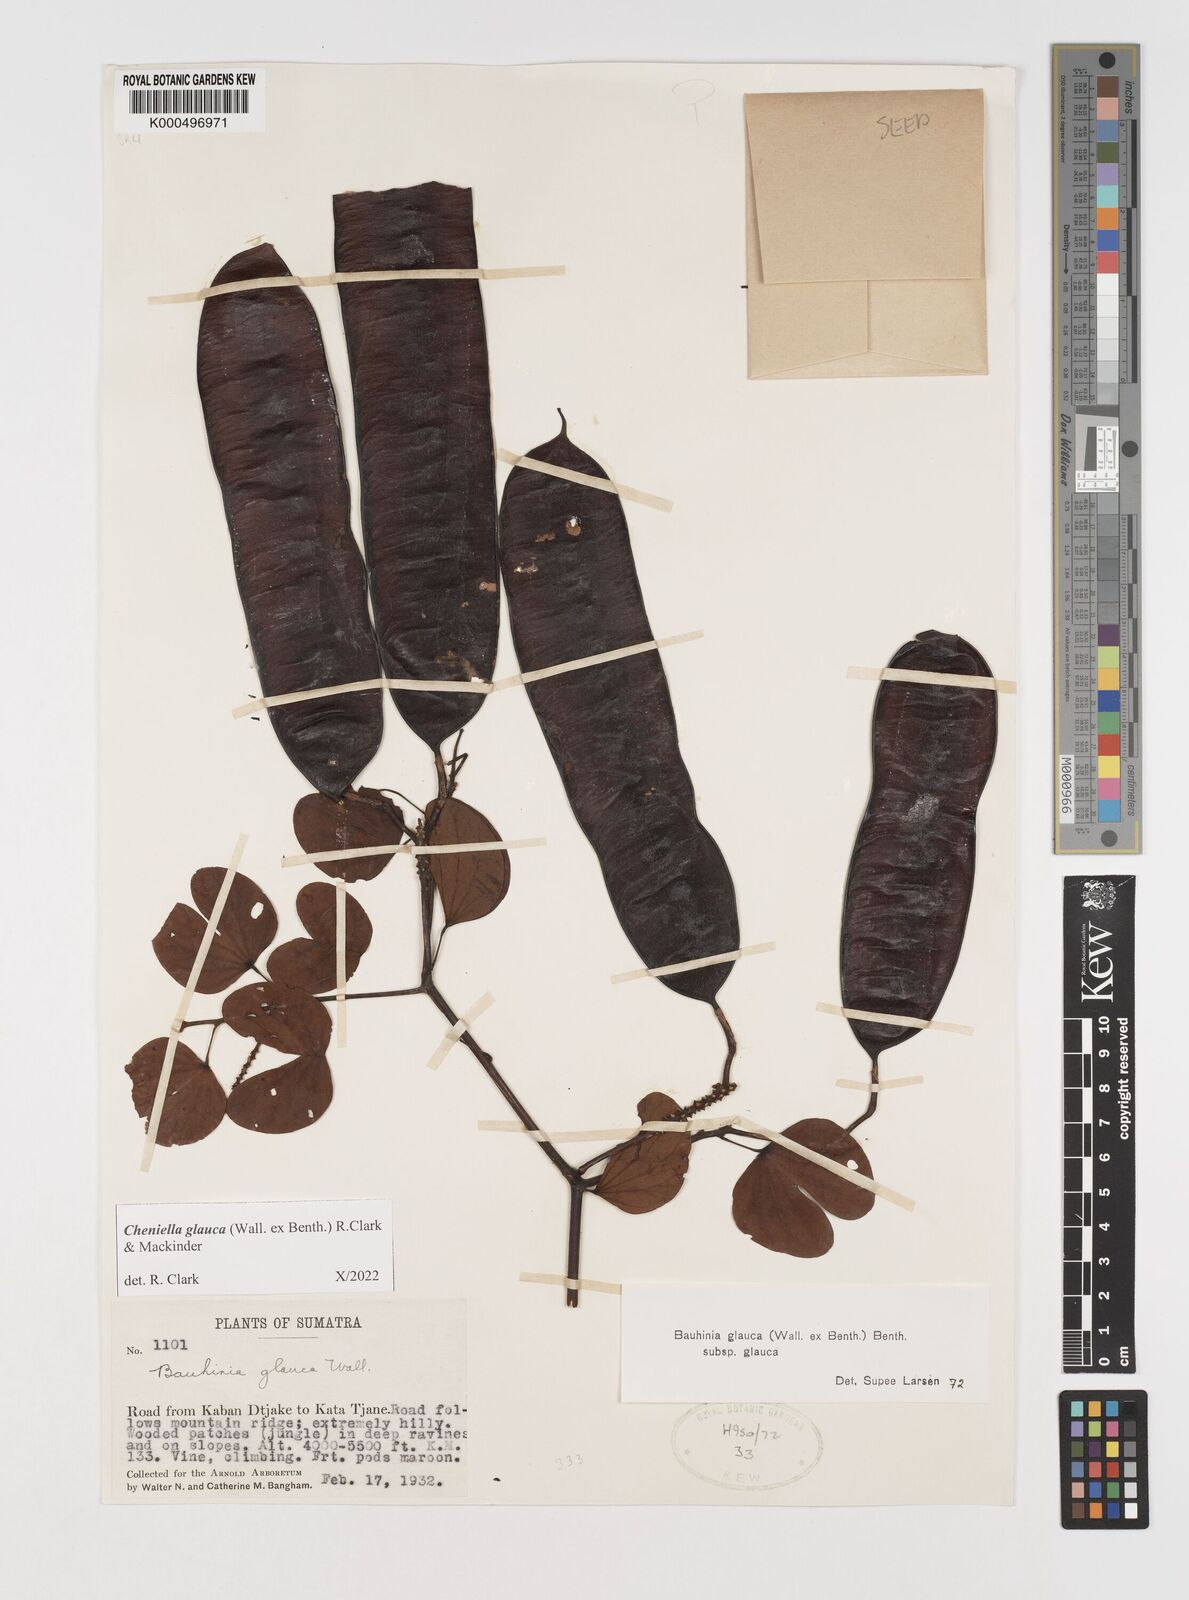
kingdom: Plantae
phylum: Tracheophyta
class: Magnoliopsida
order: Fabales
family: Fabaceae
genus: Cheniella
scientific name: Cheniella glauca
